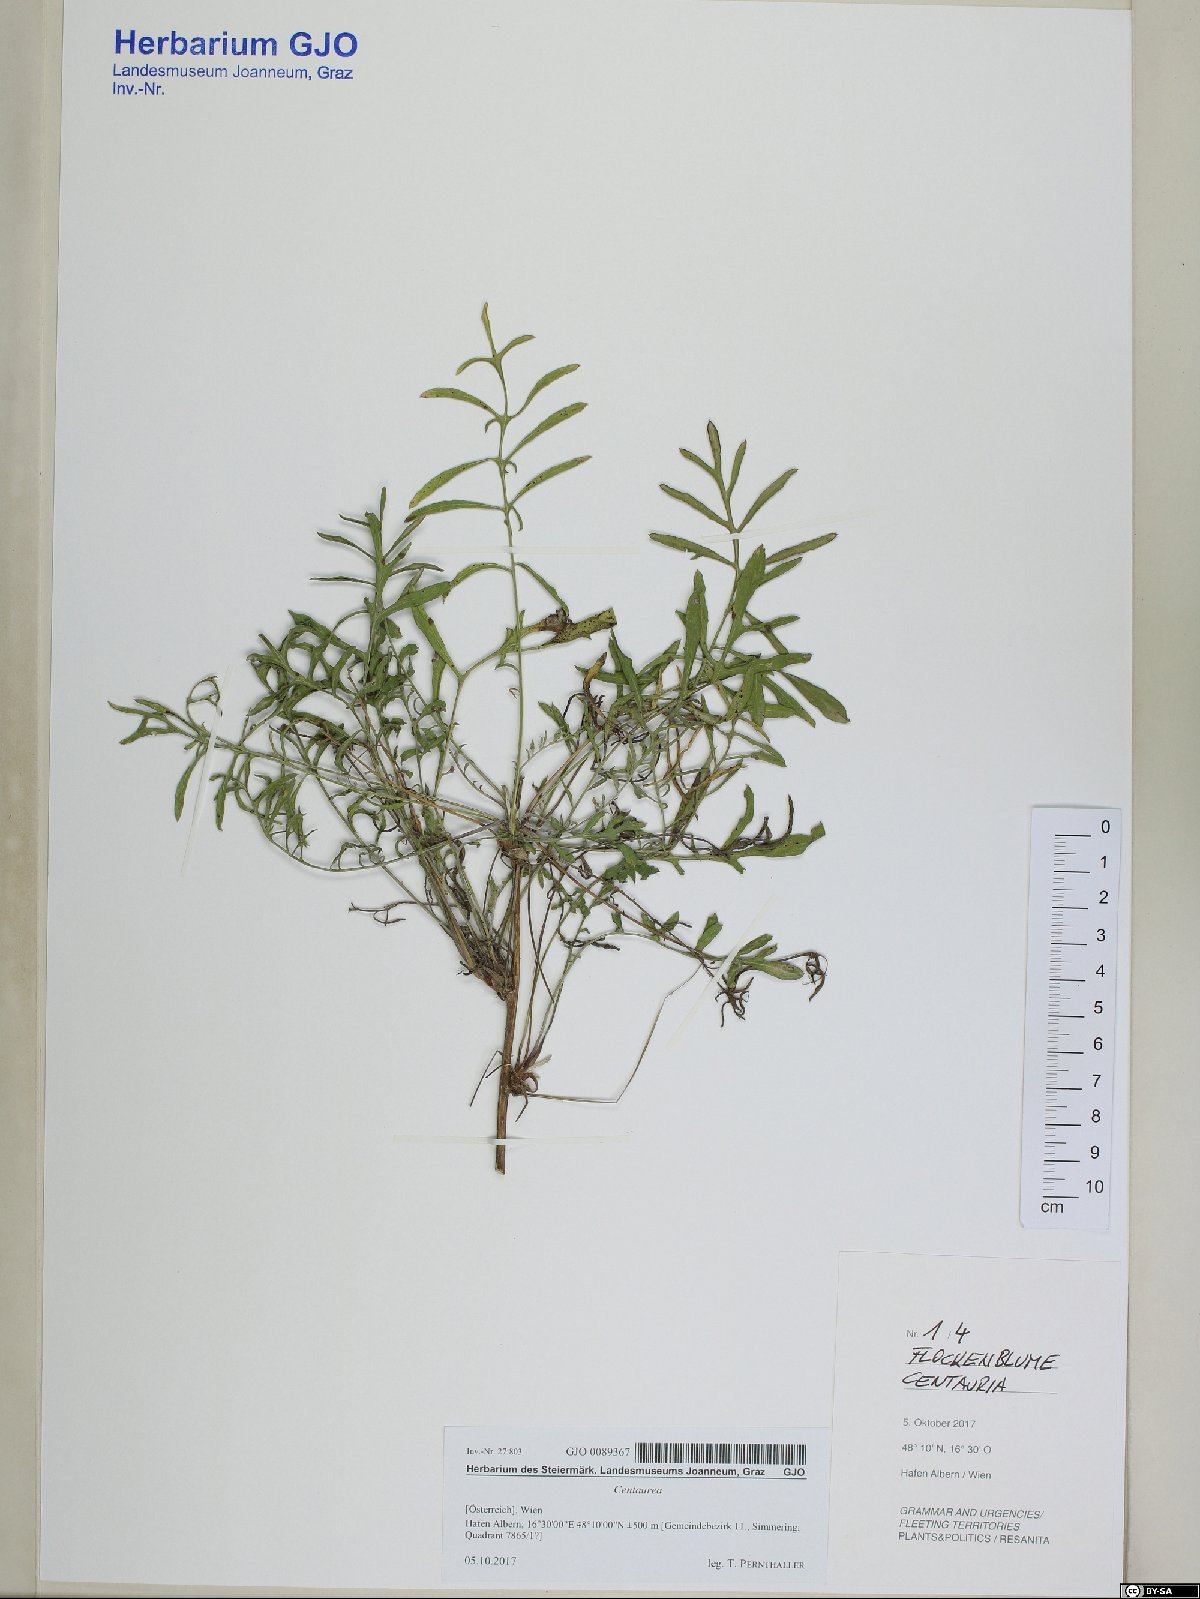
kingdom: Plantae
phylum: Tracheophyta
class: Magnoliopsida
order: Asterales
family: Asteraceae
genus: Centaurea
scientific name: Centaurea
